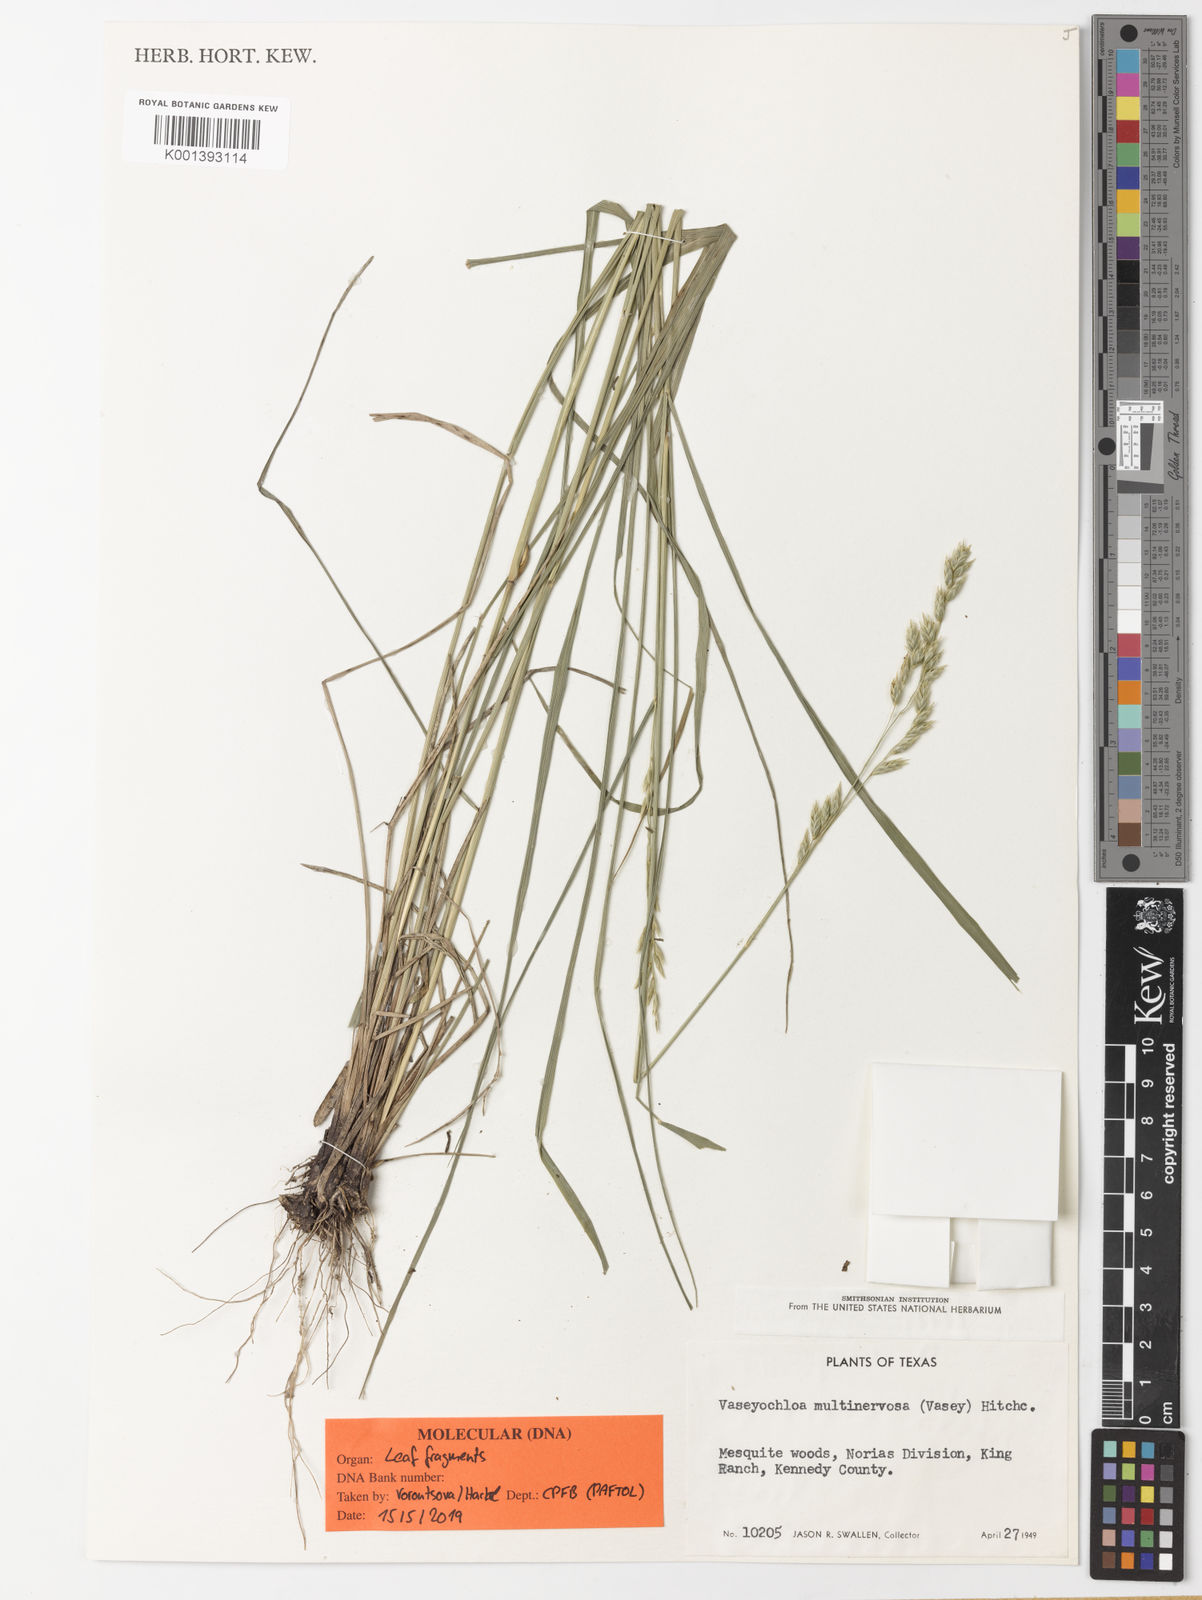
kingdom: Plantae
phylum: Tracheophyta
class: Liliopsida
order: Poales
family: Poaceae
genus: Vaseyochloa
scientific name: Vaseyochloa multinervosa
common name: Texas grass
